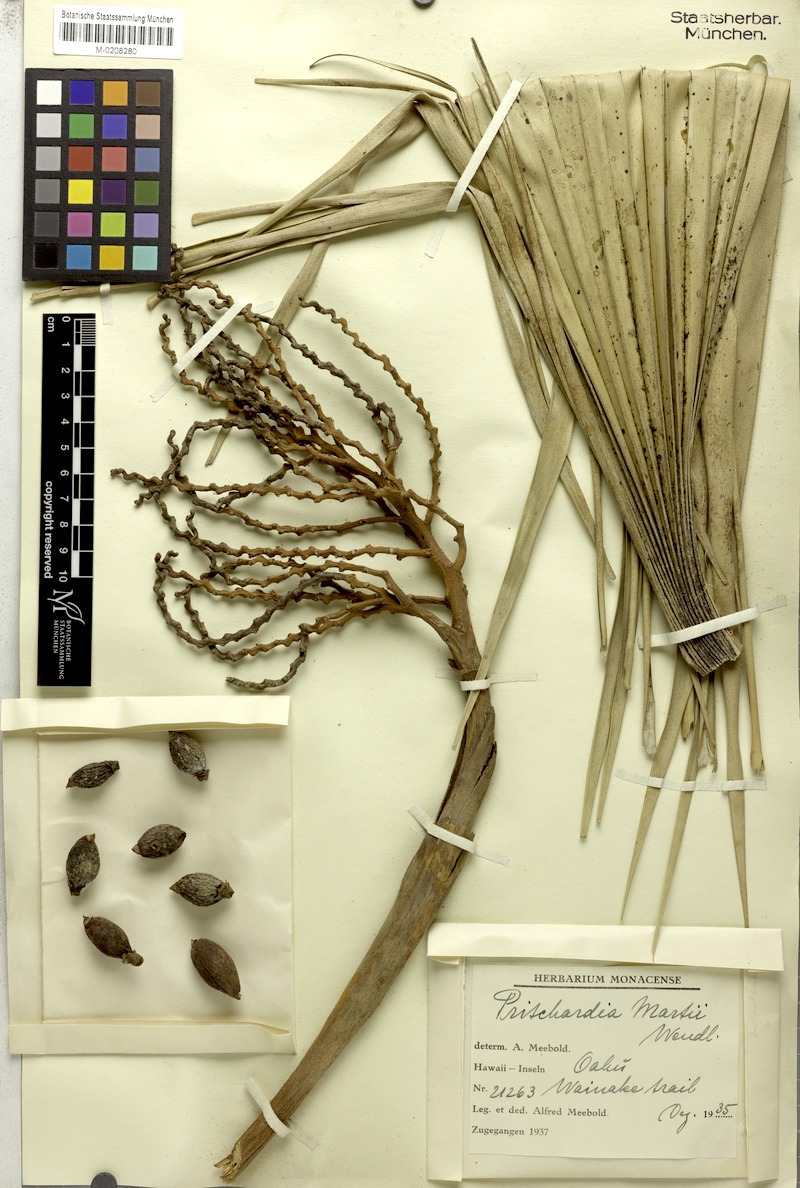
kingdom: Plantae
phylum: Tracheophyta
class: Liliopsida
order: Arecales
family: Arecaceae
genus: Pritchardia
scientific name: Pritchardia martii
